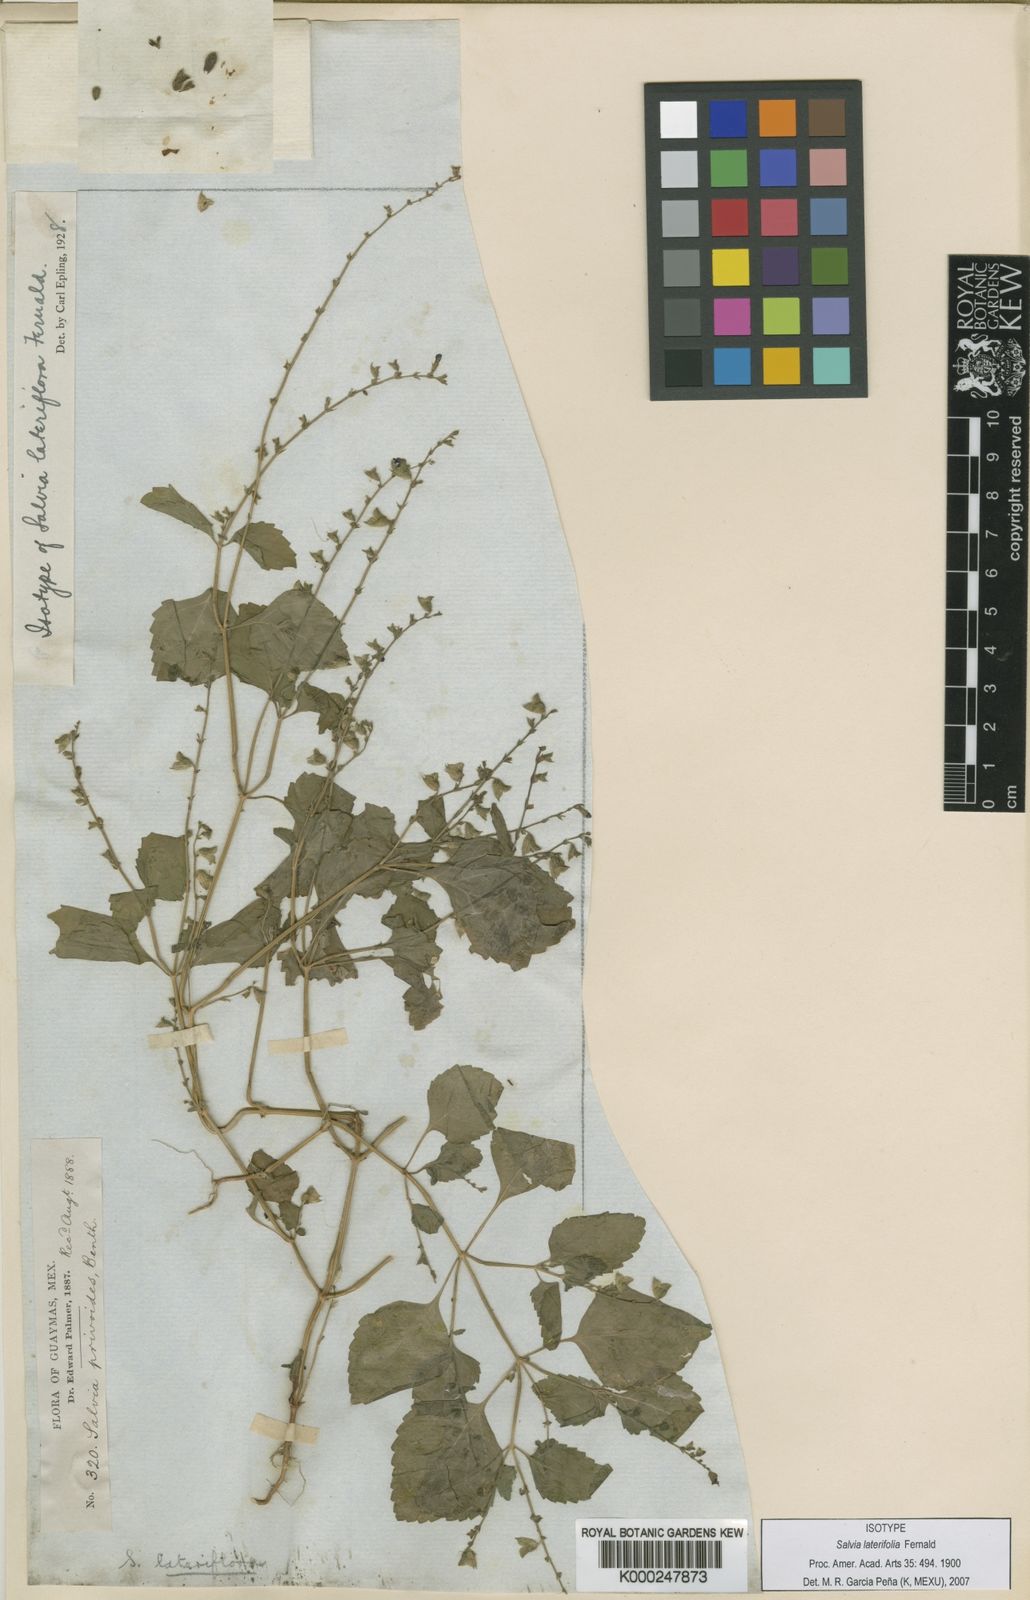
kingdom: Plantae
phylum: Tracheophyta
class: Magnoliopsida
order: Lamiales
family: Lamiaceae
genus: Salvia
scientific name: Salvia
